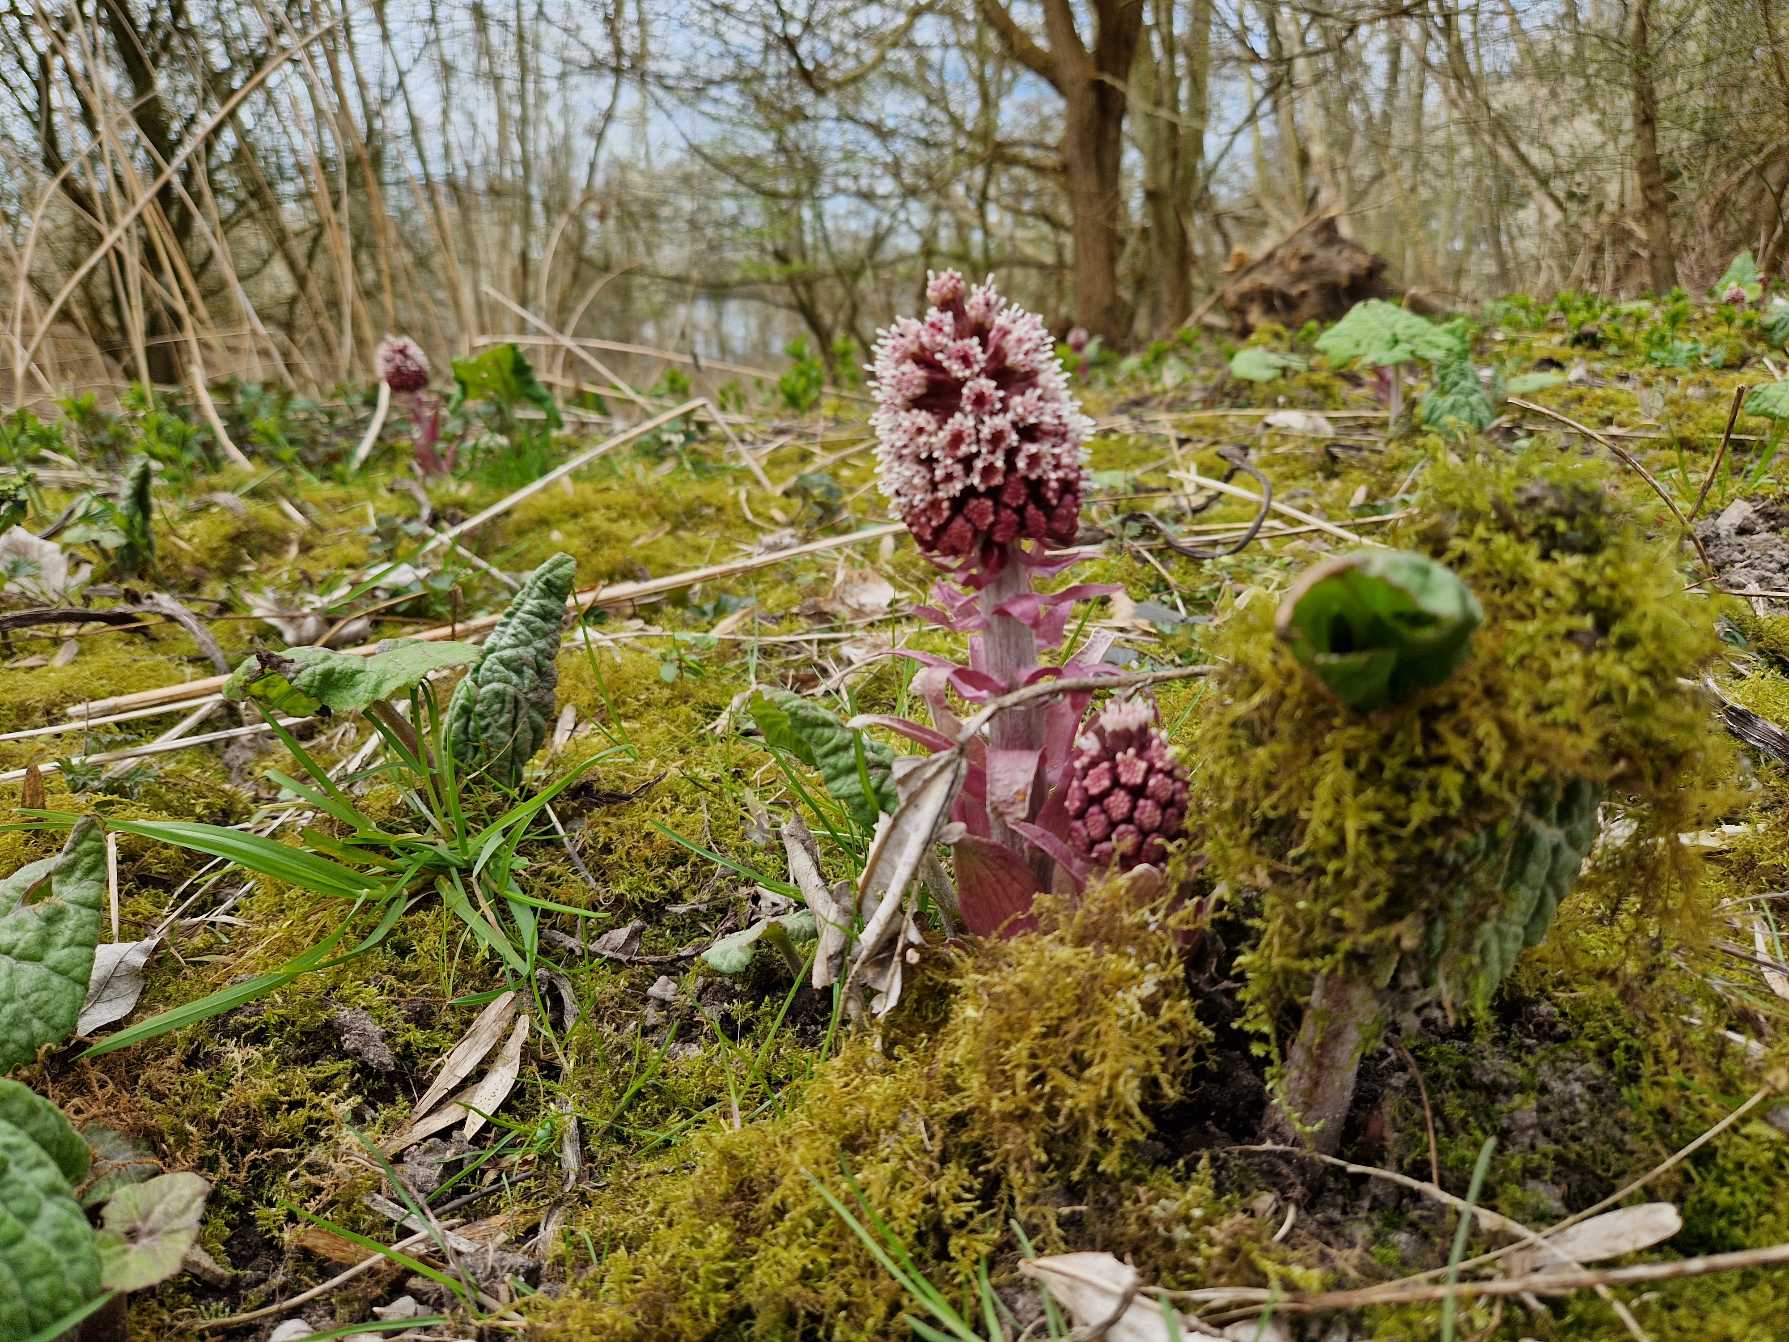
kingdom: Plantae
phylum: Tracheophyta
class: Magnoliopsida
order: Asterales
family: Asteraceae
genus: Petasites
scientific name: Petasites hybridus
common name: Rød hestehov
